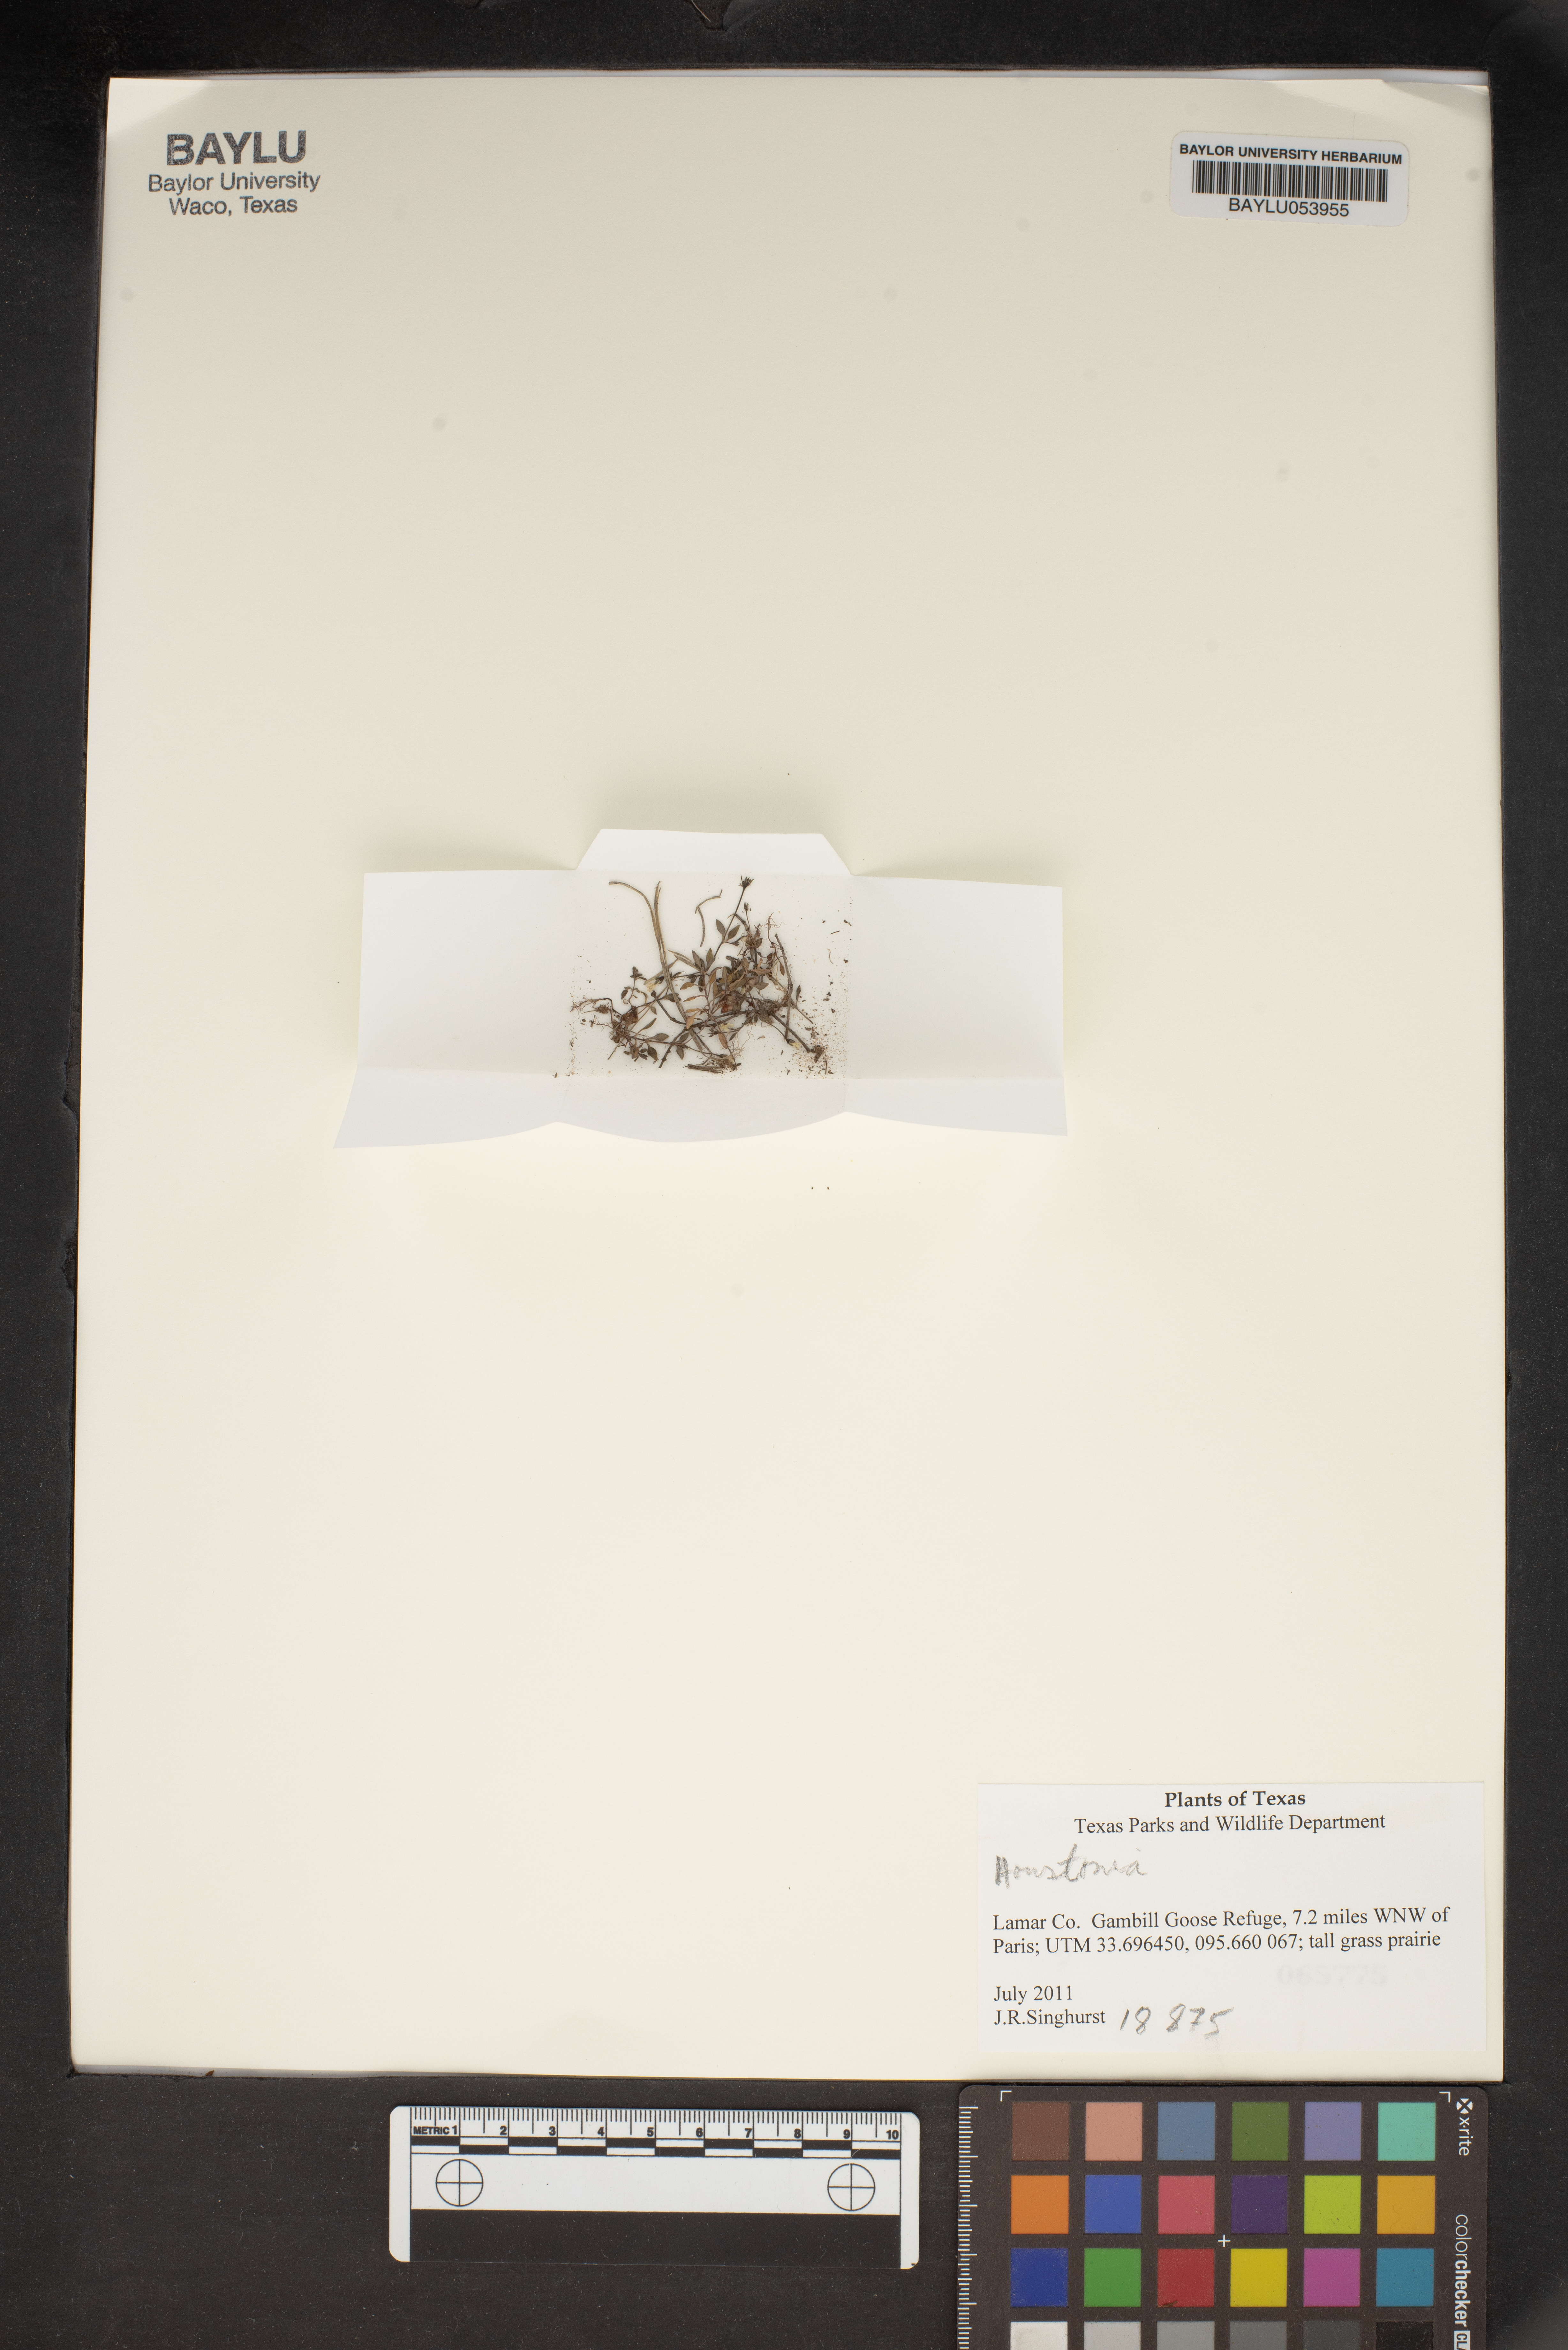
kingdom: Plantae
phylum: Tracheophyta
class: Magnoliopsida
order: Gentianales
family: Rubiaceae
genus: Houstonia
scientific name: Houstonia
